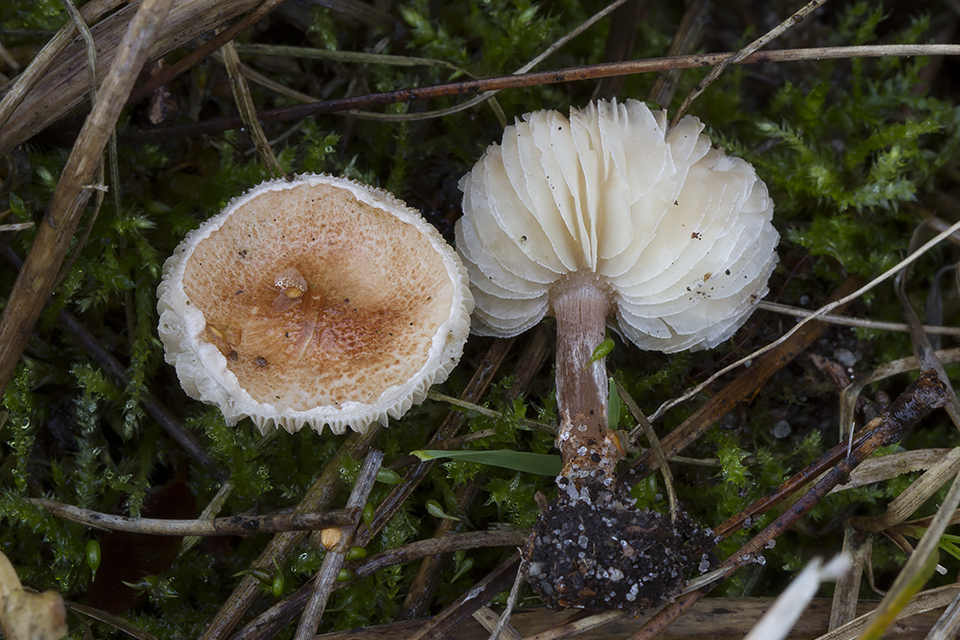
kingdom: Fungi
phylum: Basidiomycota
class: Agaricomycetes
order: Agaricales
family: Agaricaceae
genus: Lepiota
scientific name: Lepiota subincarnata
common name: kødfarvet parasolhat
